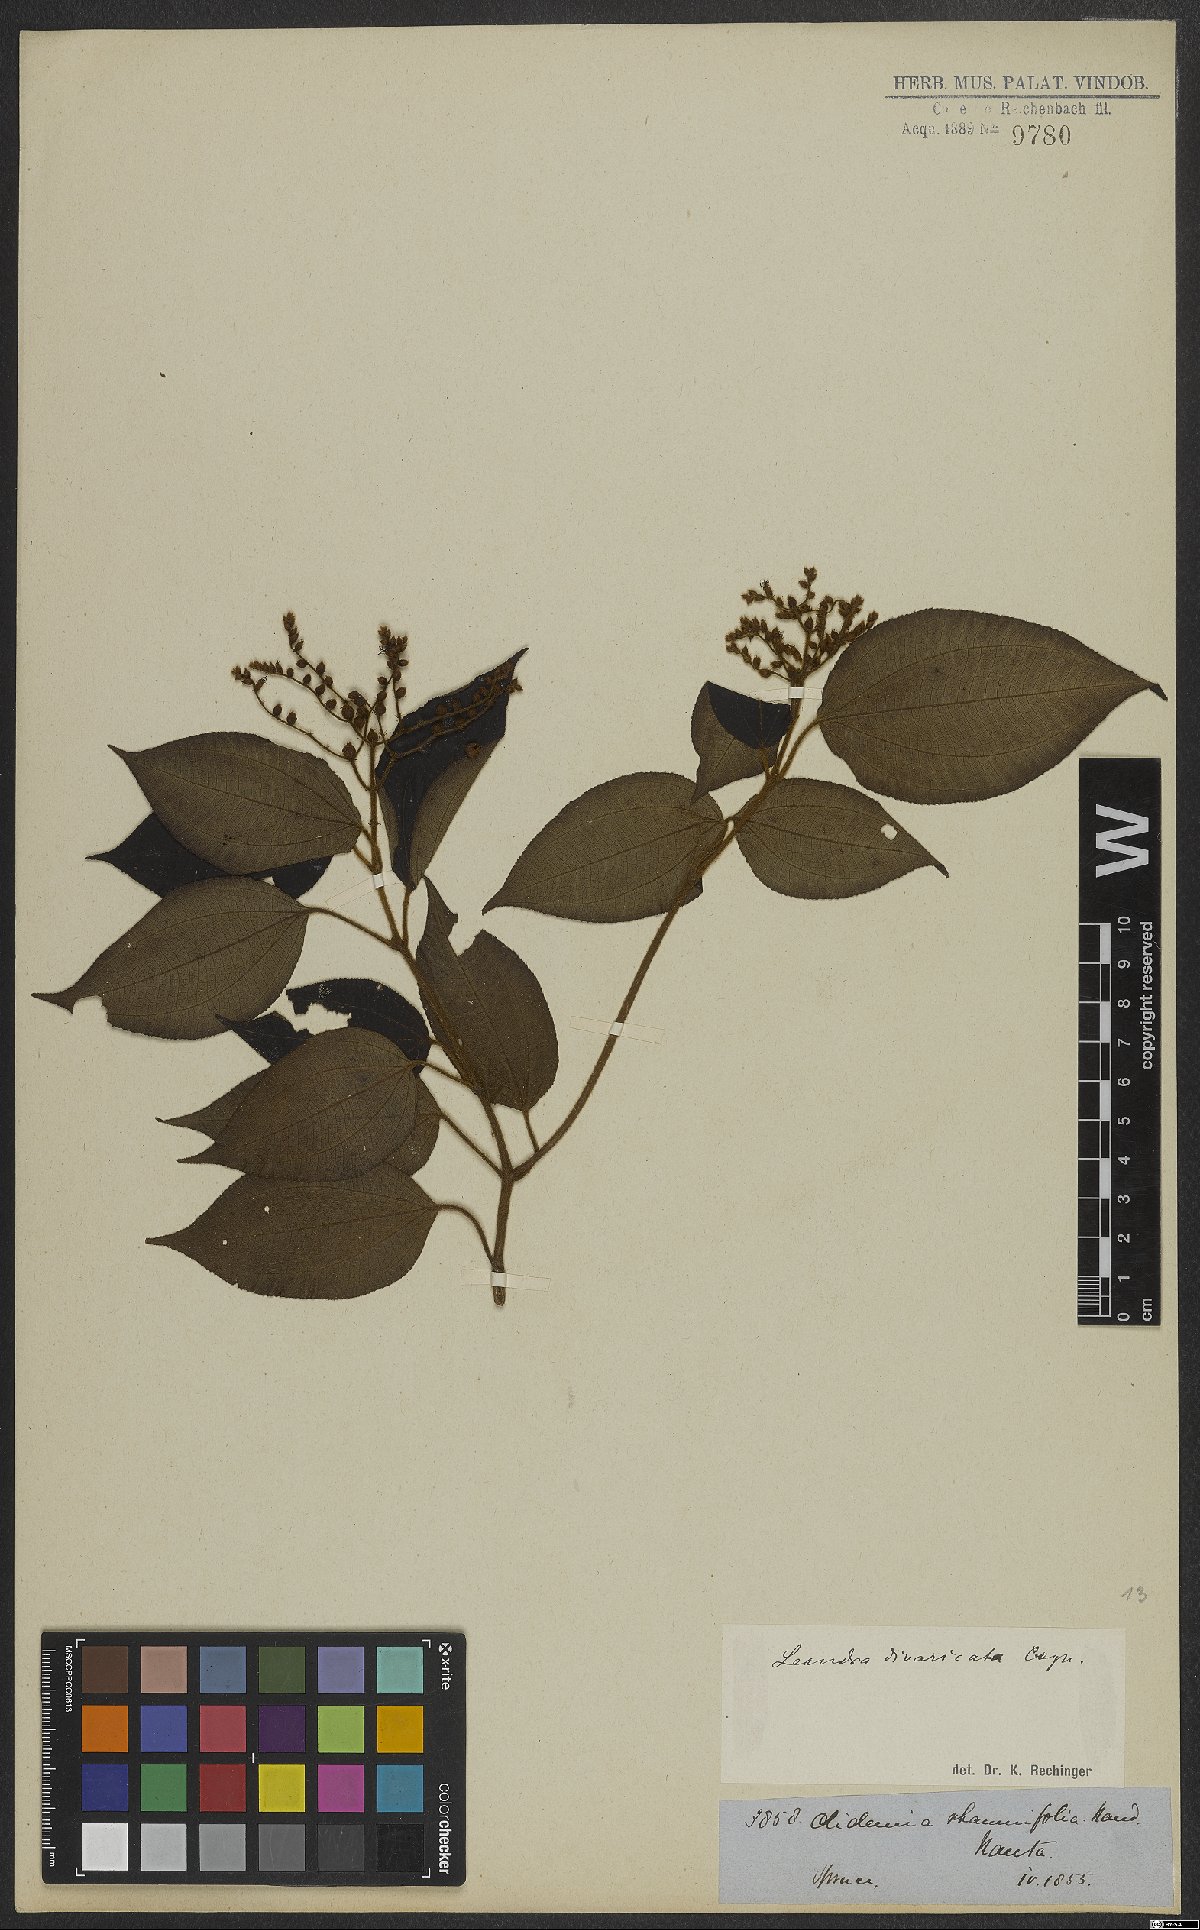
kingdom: Plantae
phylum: Tracheophyta
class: Magnoliopsida
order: Myrtales
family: Melastomataceae
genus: Miconia
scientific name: Miconia secundivaricata
